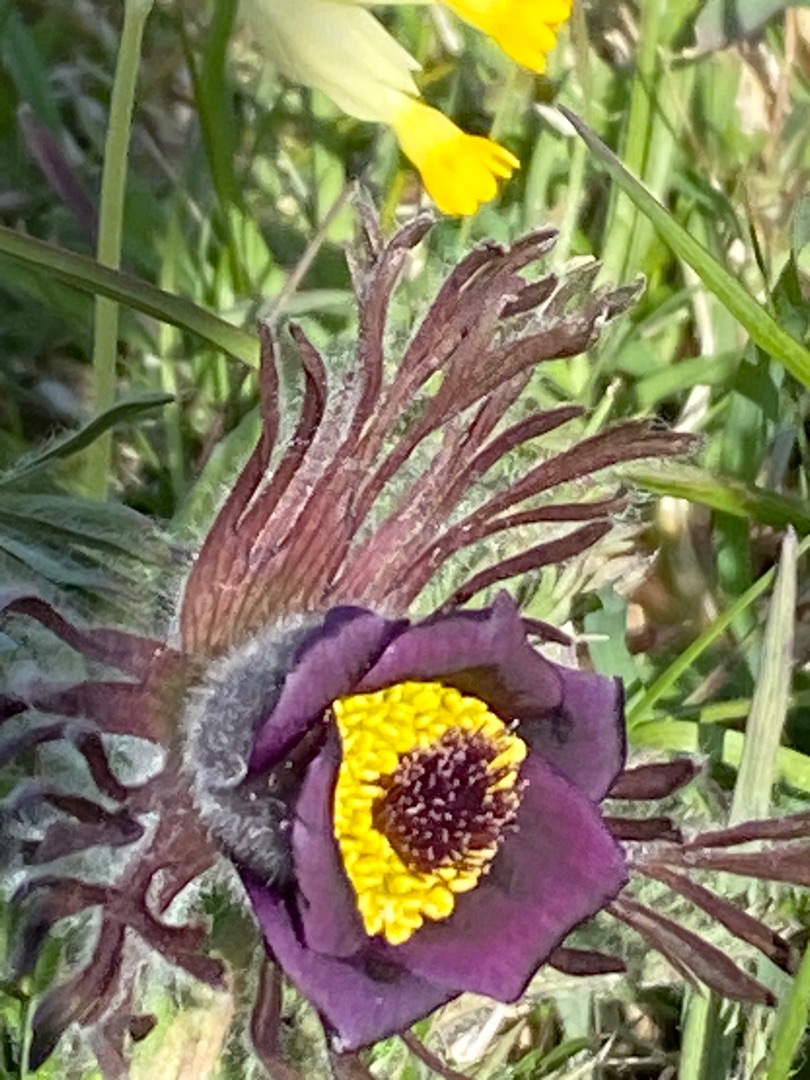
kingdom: Plantae
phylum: Tracheophyta
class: Magnoliopsida
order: Ranunculales
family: Ranunculaceae
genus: Pulsatilla
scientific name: Pulsatilla pratensis
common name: Nikkende kobjælde
